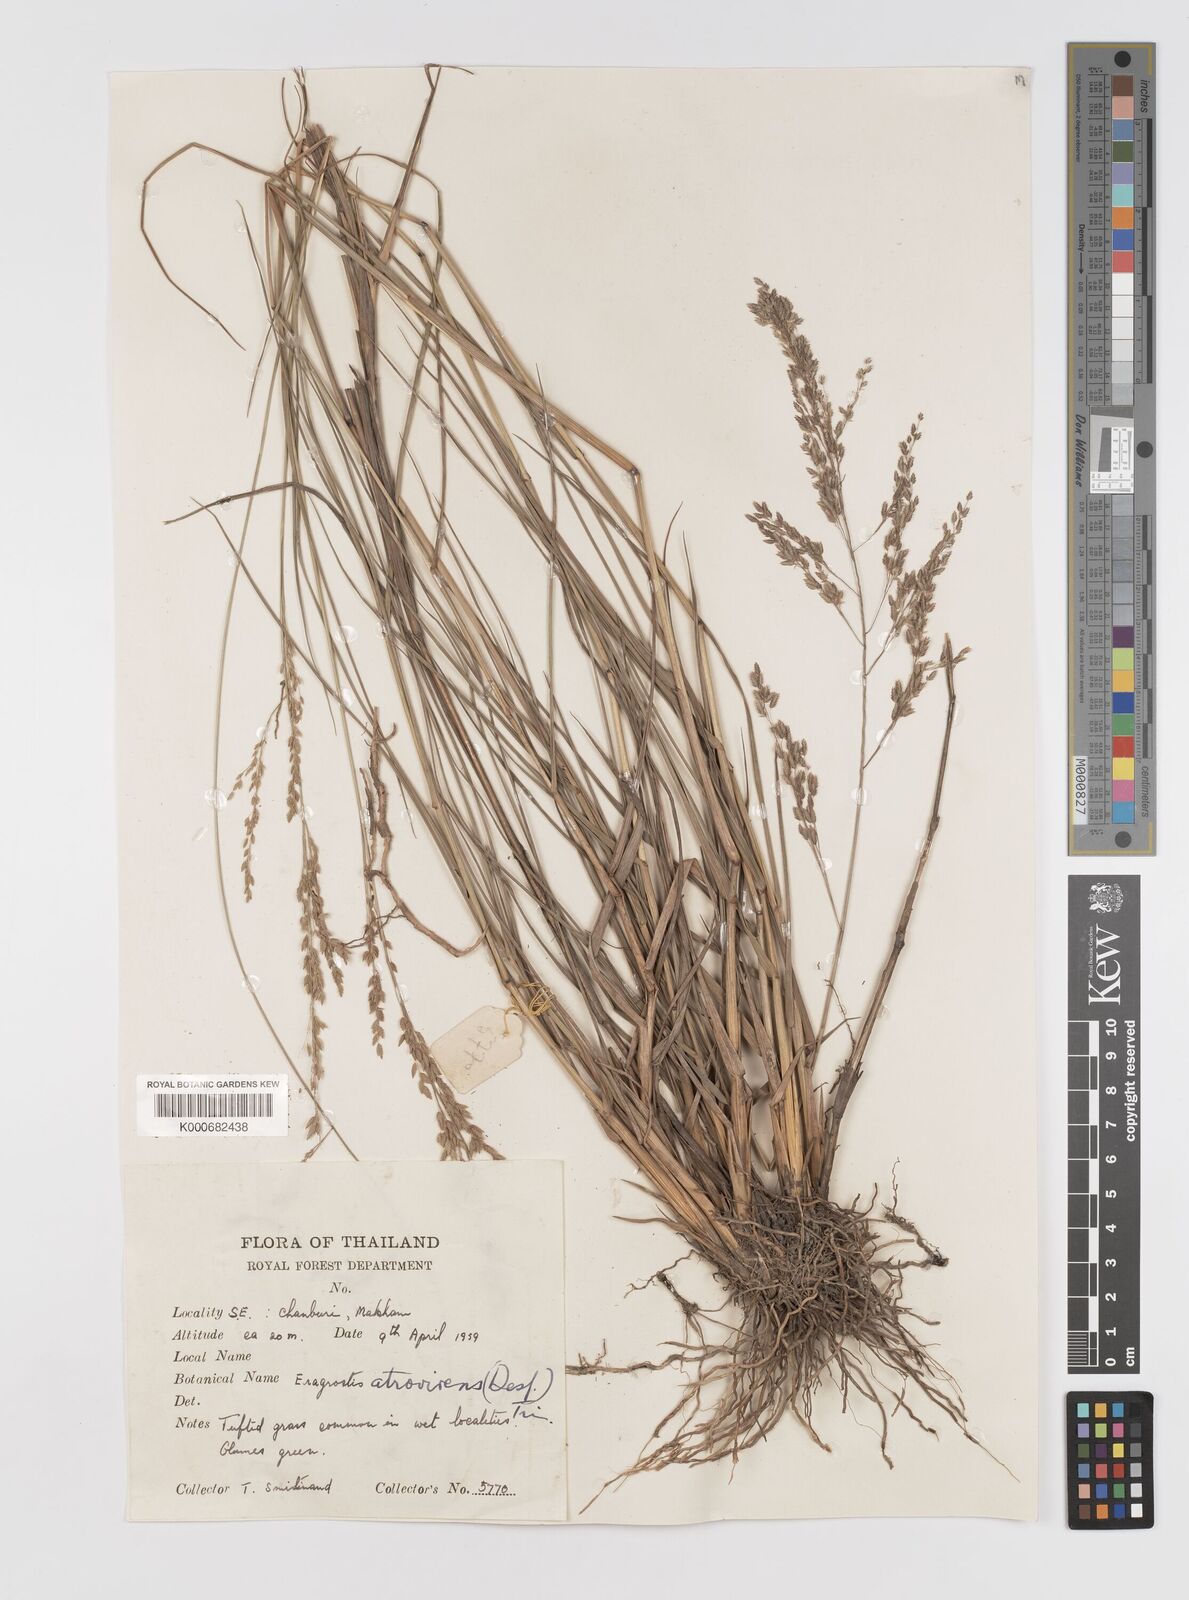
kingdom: Plantae
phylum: Tracheophyta
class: Liliopsida
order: Poales
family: Poaceae
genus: Eragrostis
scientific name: Eragrostis
